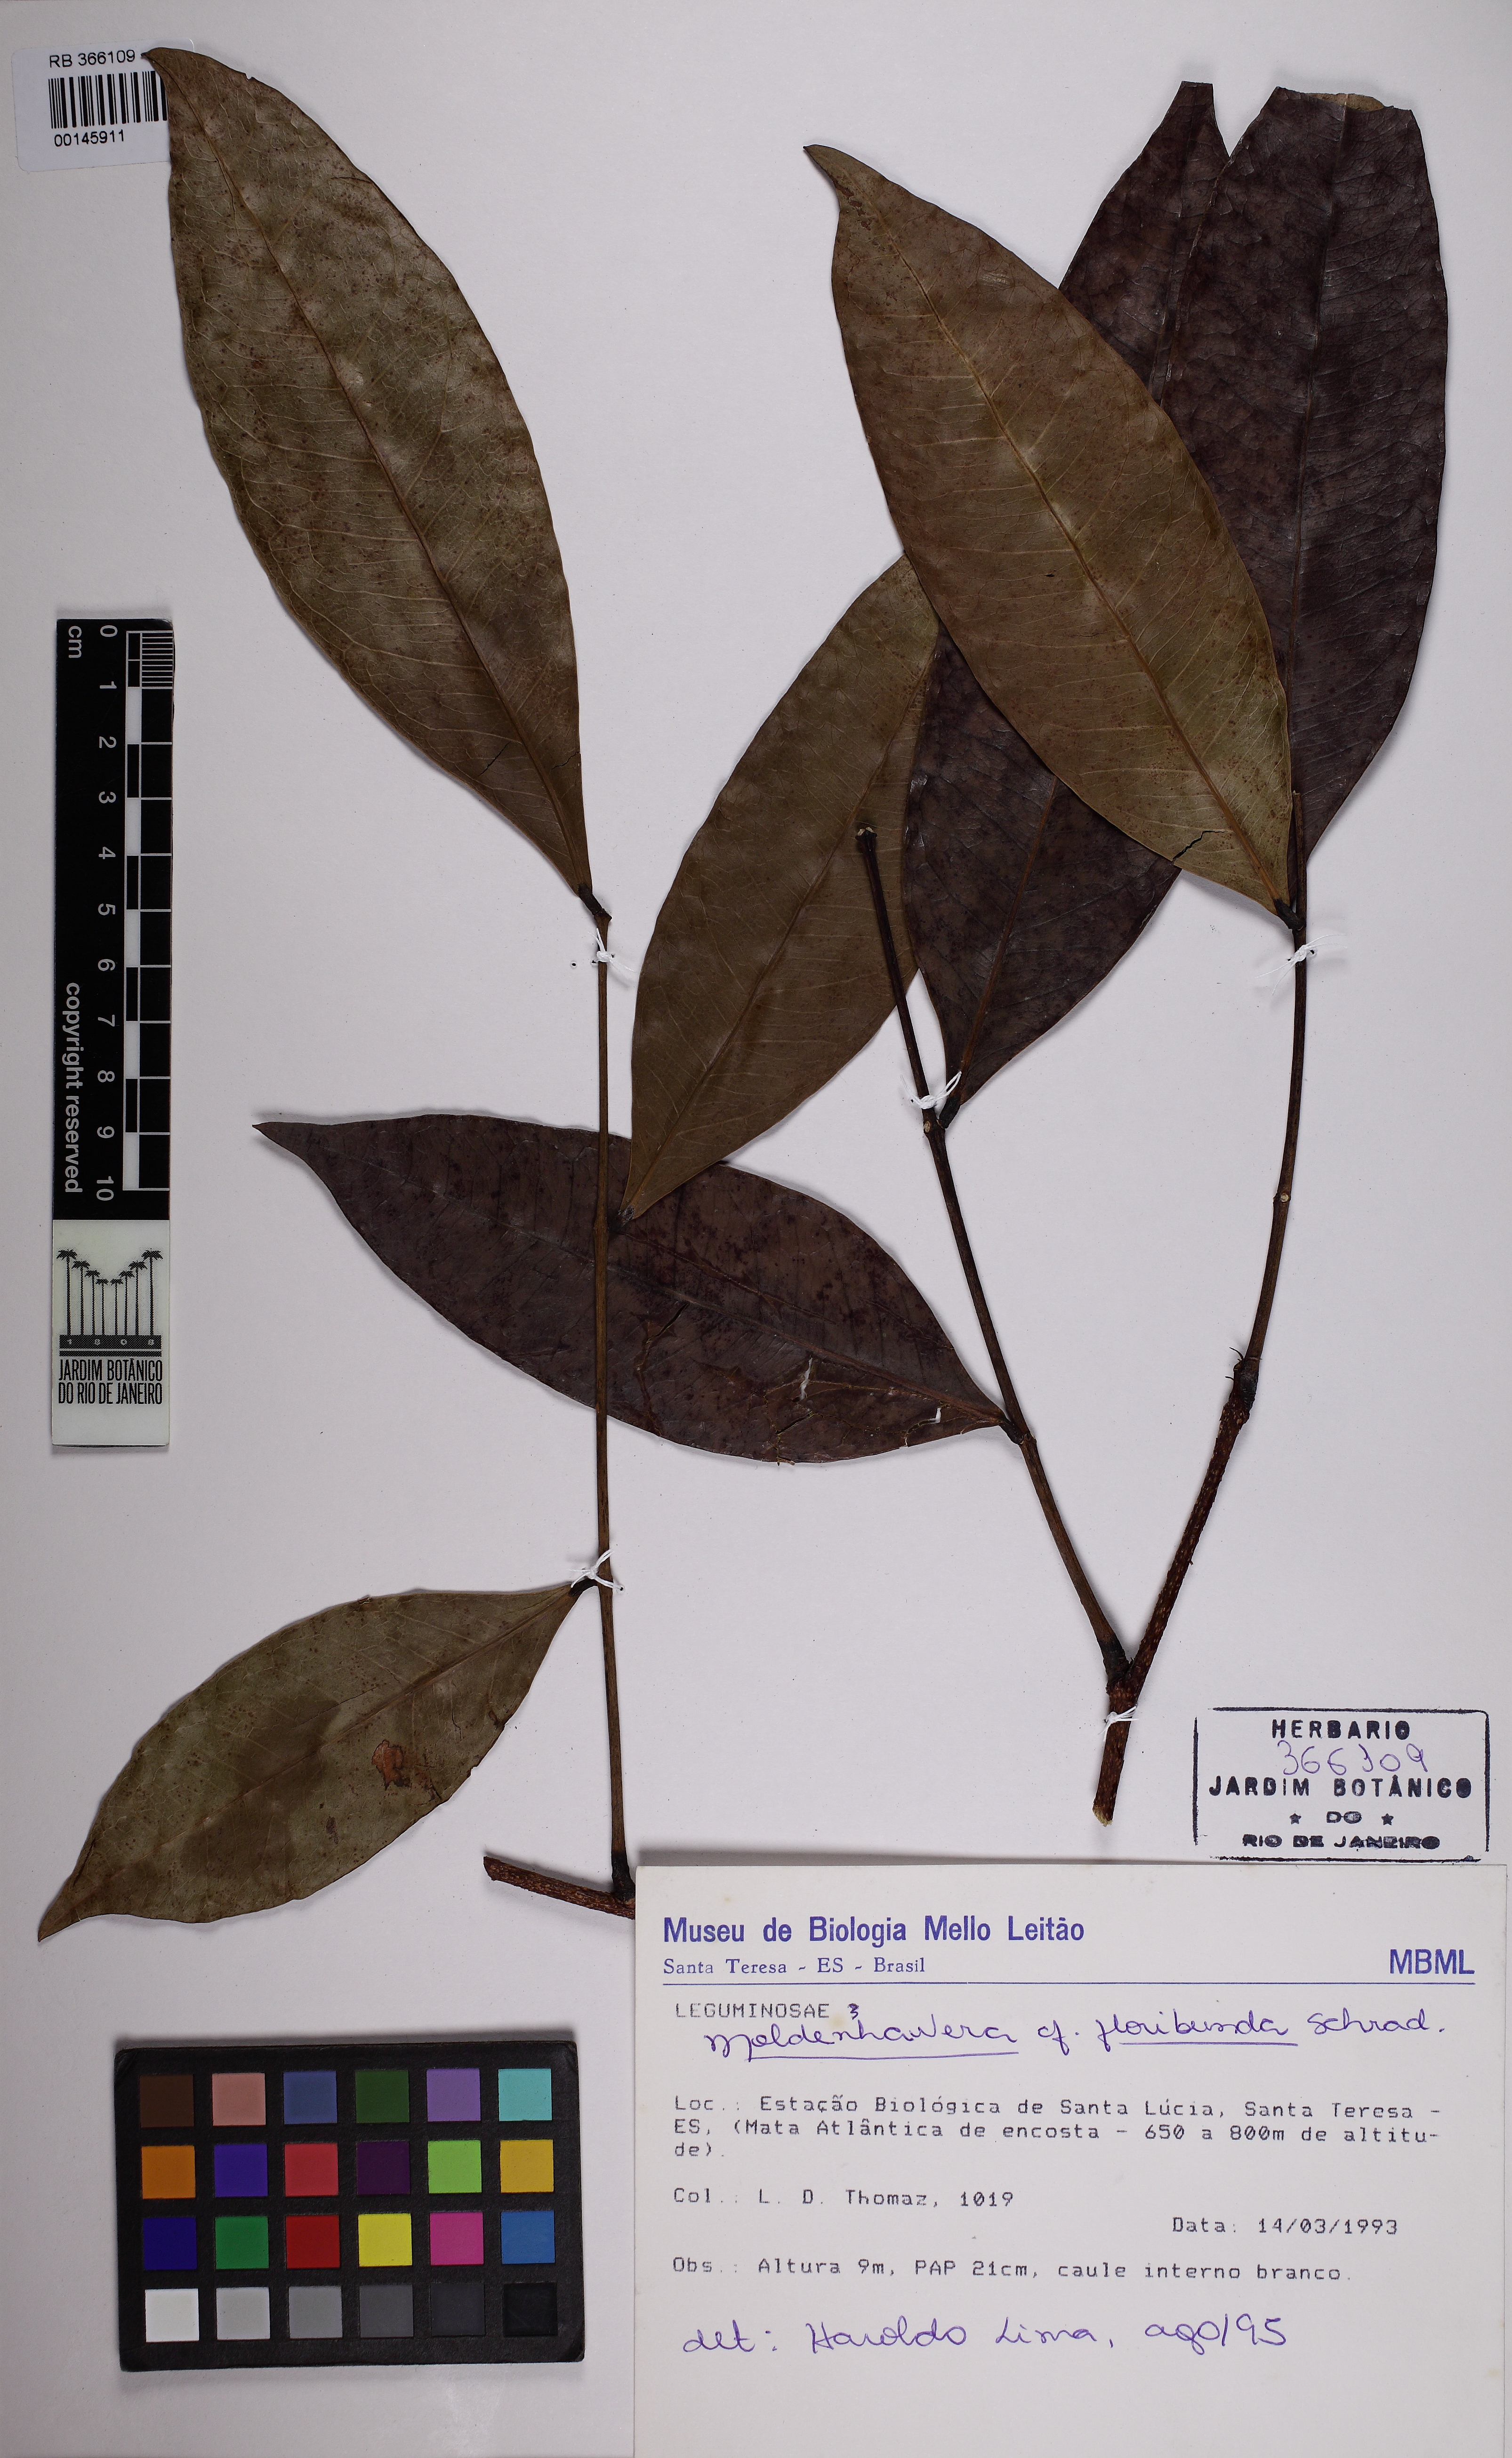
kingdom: Plantae
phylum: Tracheophyta
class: Magnoliopsida
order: Fabales
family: Fabaceae
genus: Moldenhawera
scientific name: Moldenhawera floribunda
